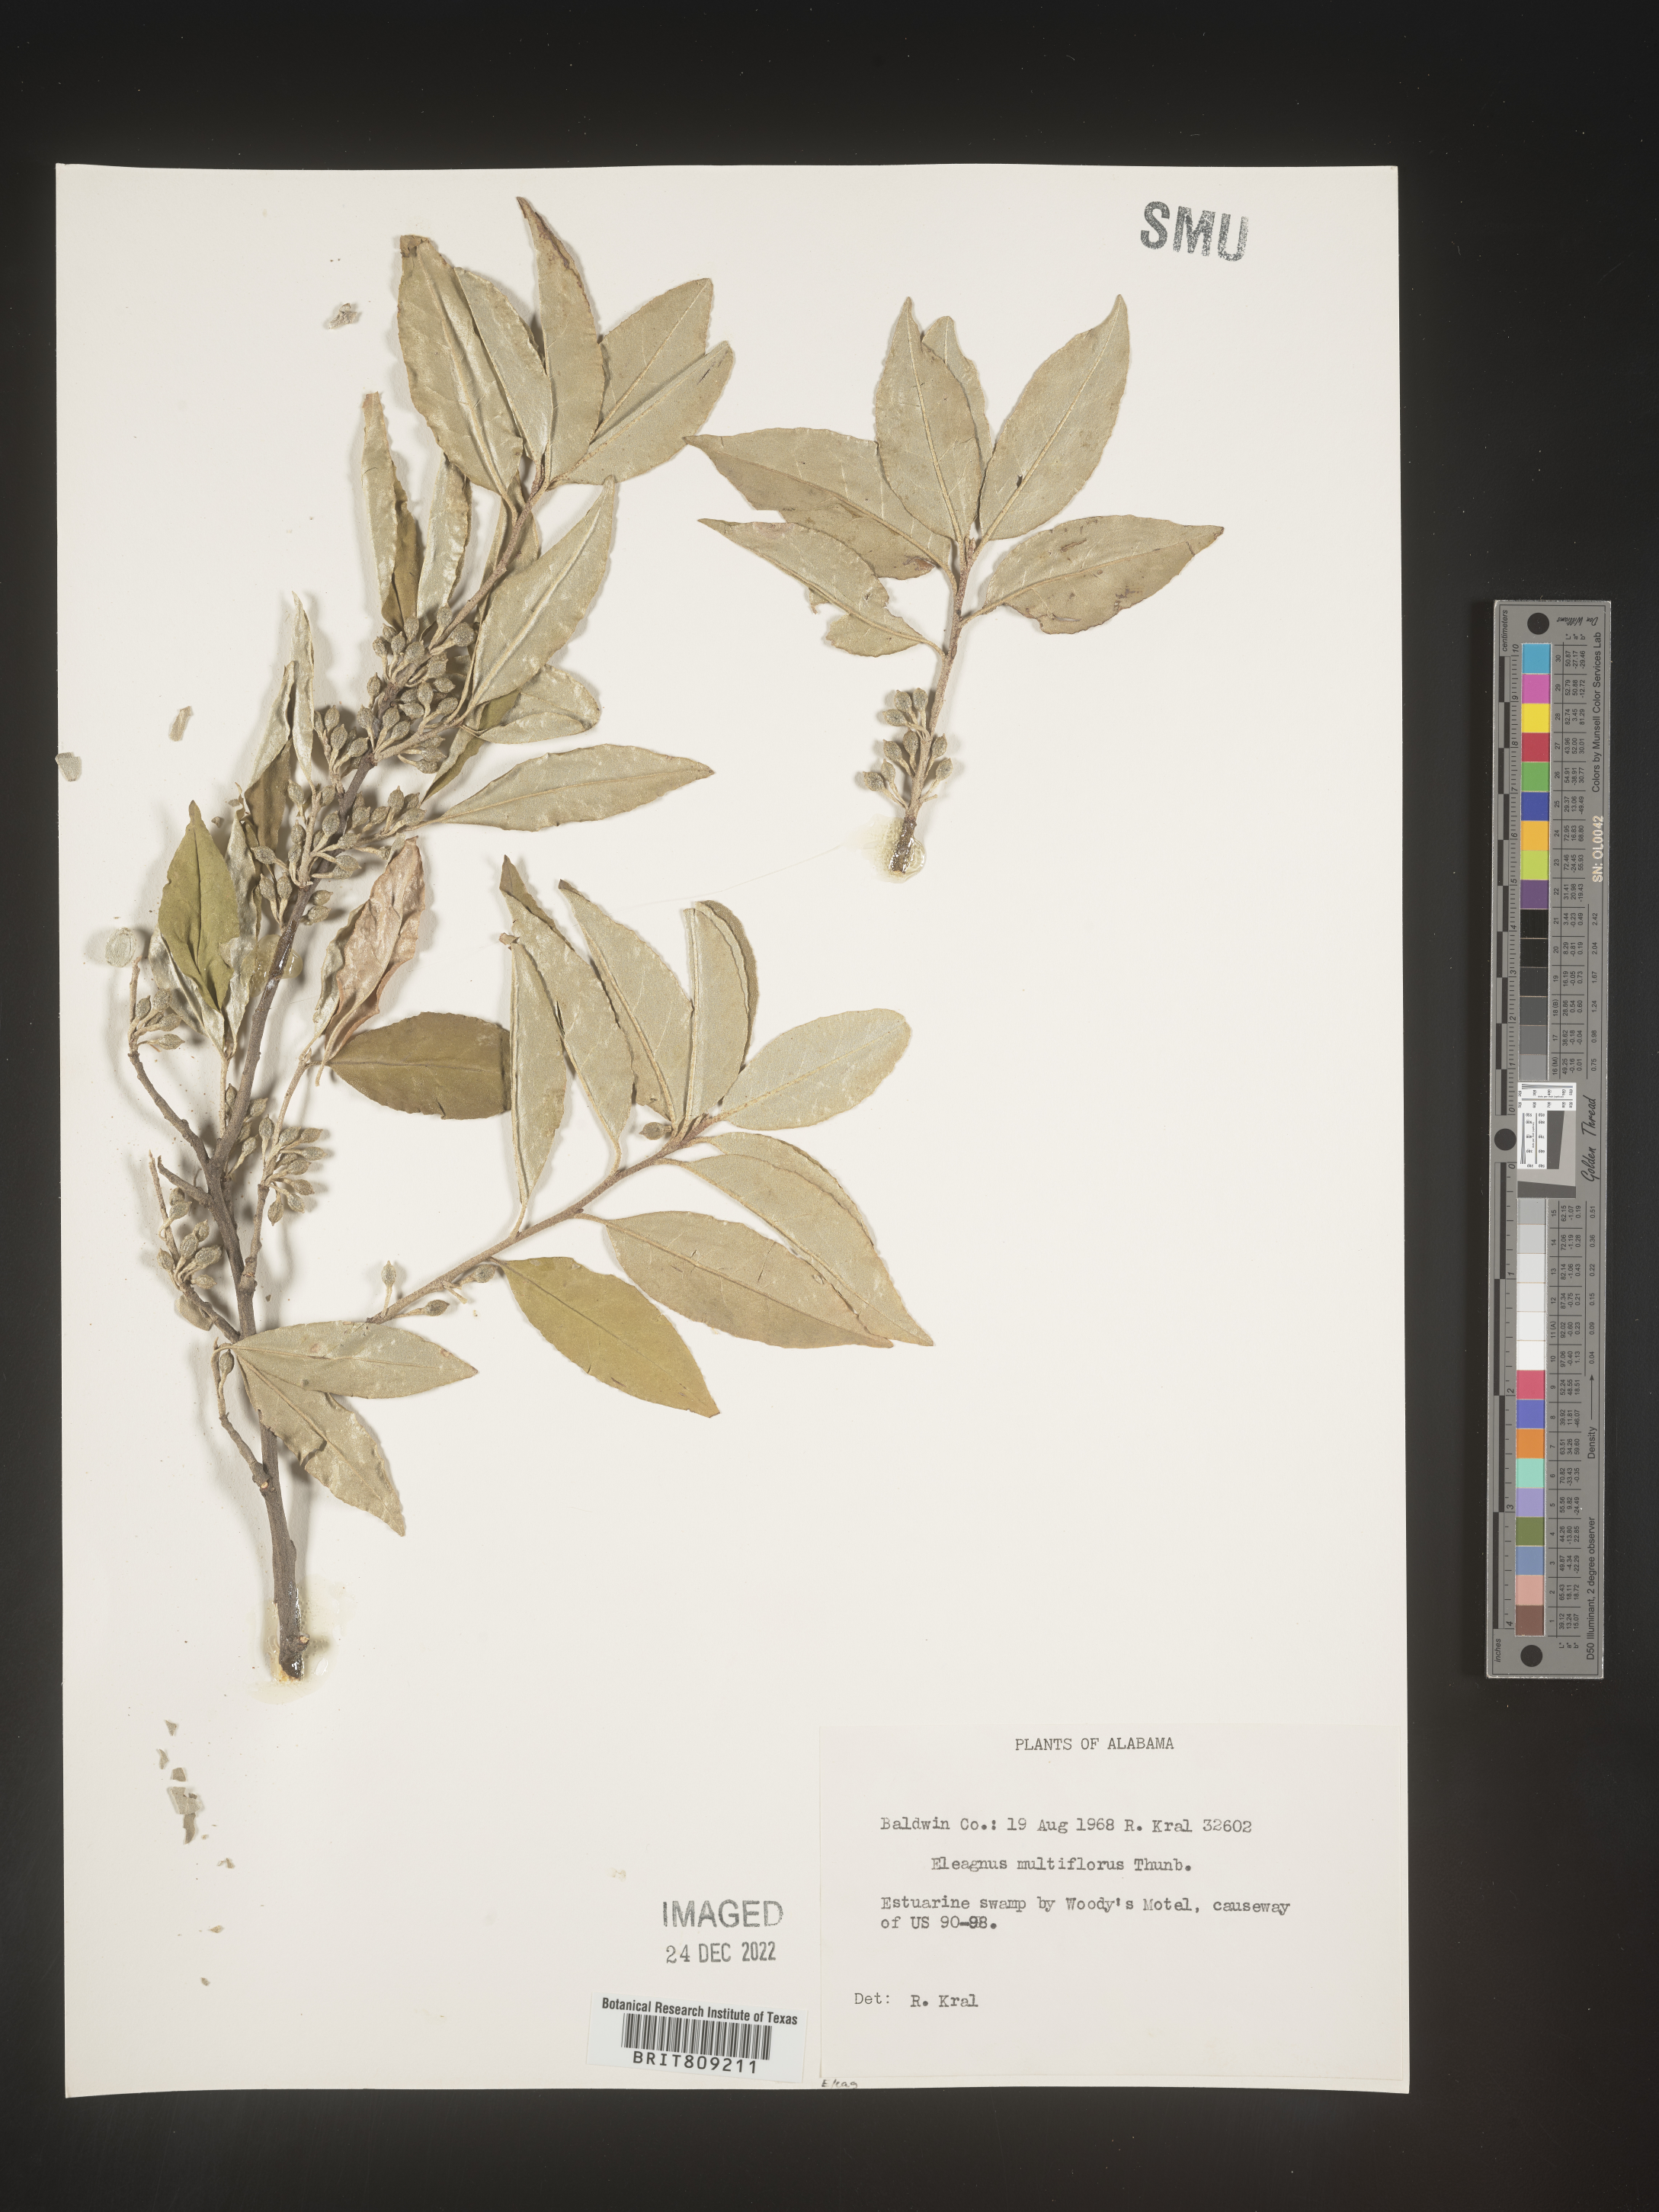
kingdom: Plantae
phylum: Tracheophyta
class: Magnoliopsida
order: Rosales
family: Elaeagnaceae
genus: Elaeagnus
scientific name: Elaeagnus
